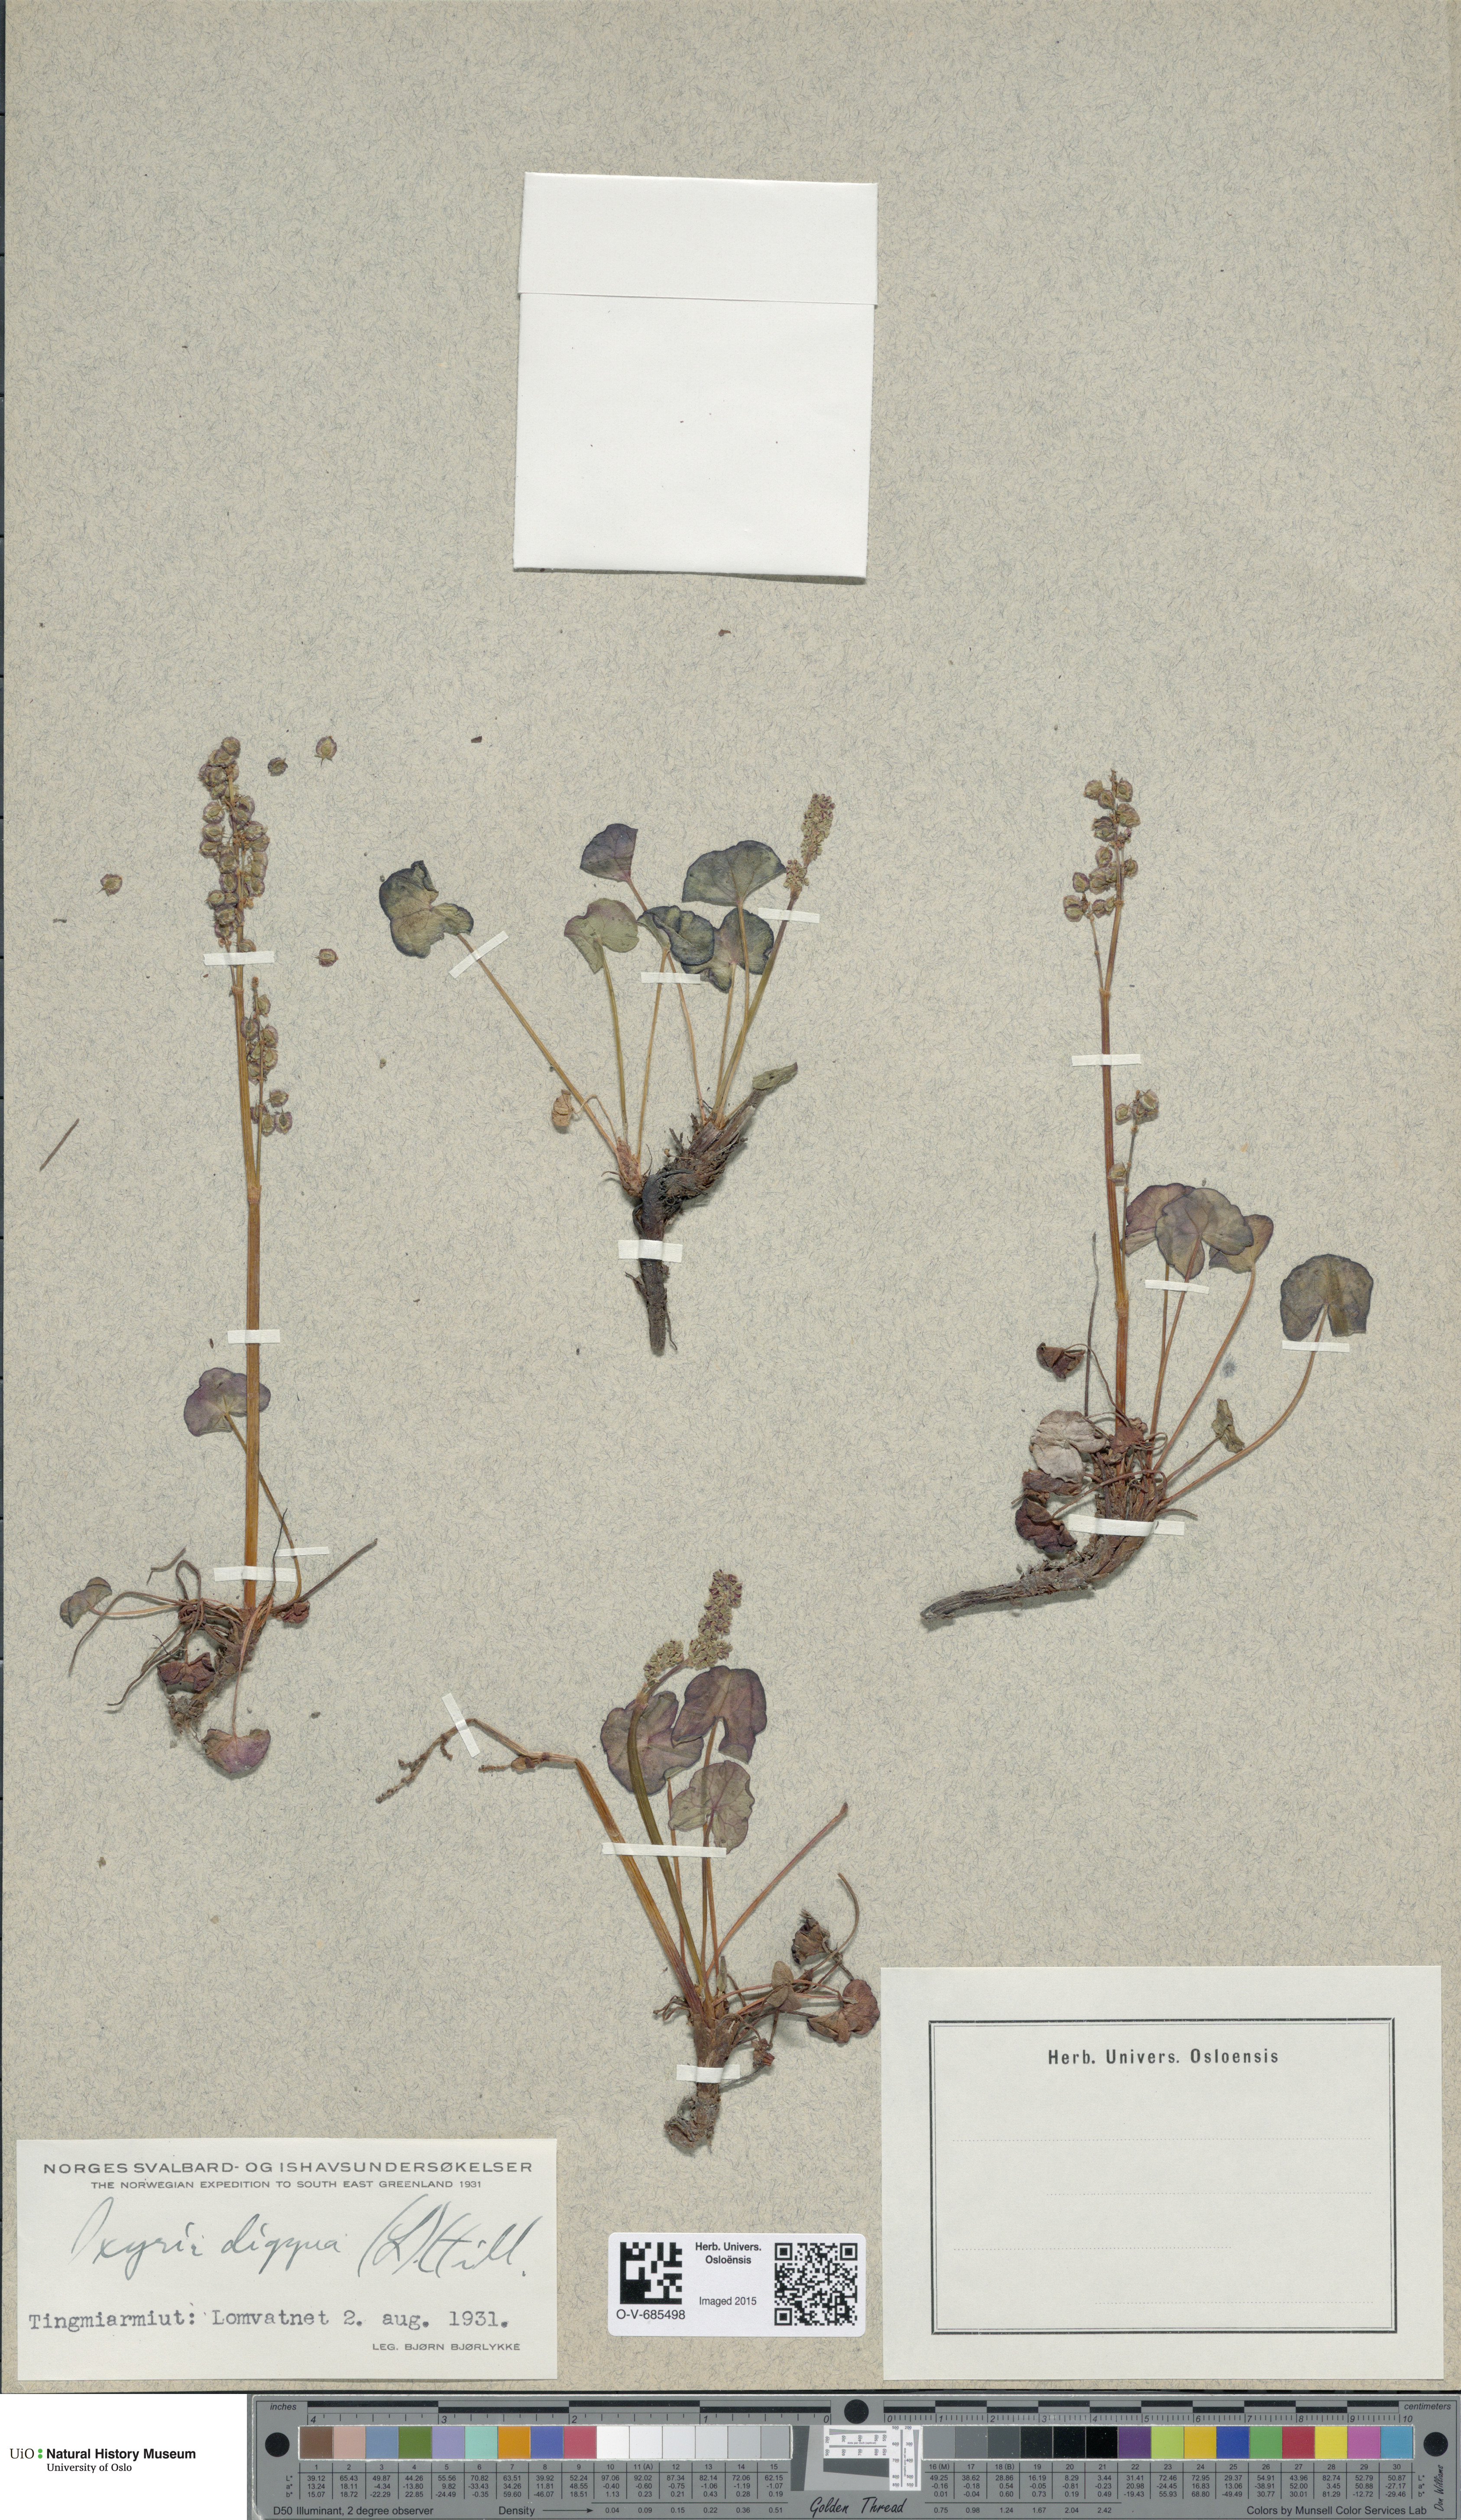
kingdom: Plantae
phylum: Tracheophyta
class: Magnoliopsida
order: Caryophyllales
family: Polygonaceae
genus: Oxyria
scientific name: Oxyria digyna
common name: Alpine mountain-sorrel
